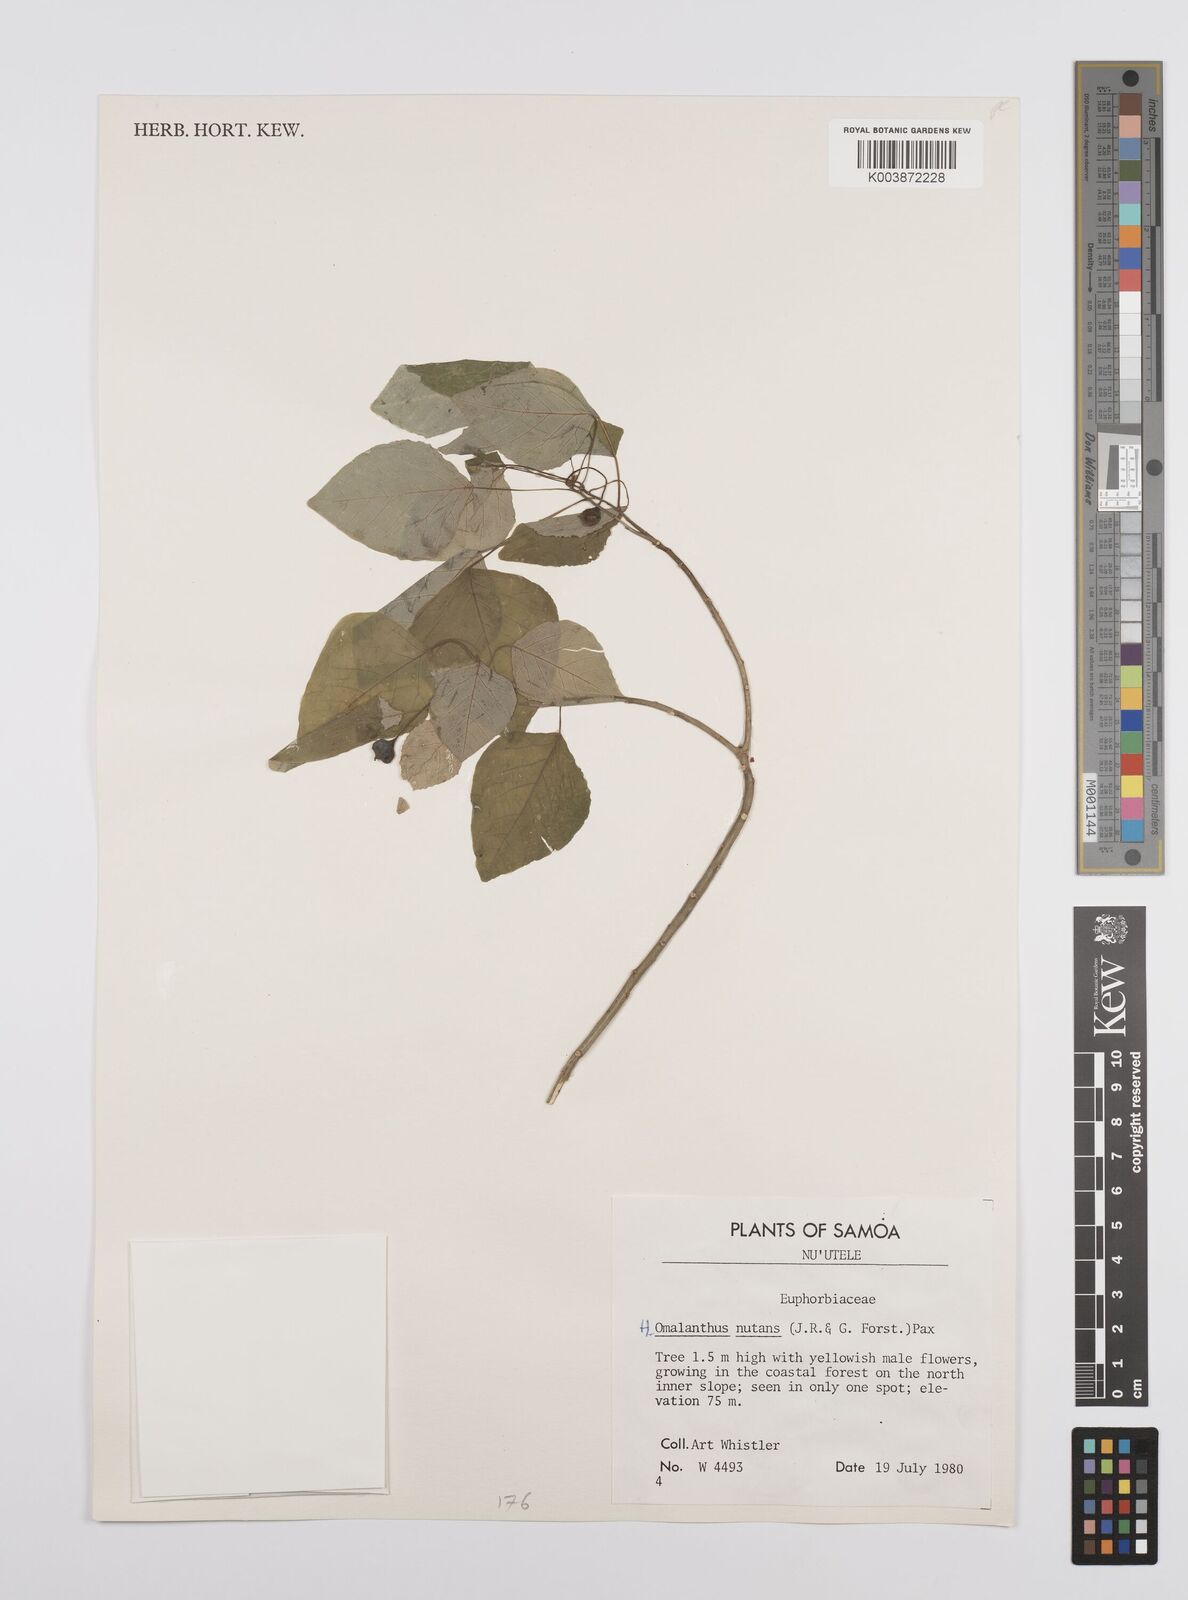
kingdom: Plantae
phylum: Tracheophyta
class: Magnoliopsida
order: Malpighiales
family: Euphorbiaceae
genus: Homalanthus
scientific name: Homalanthus nutans
